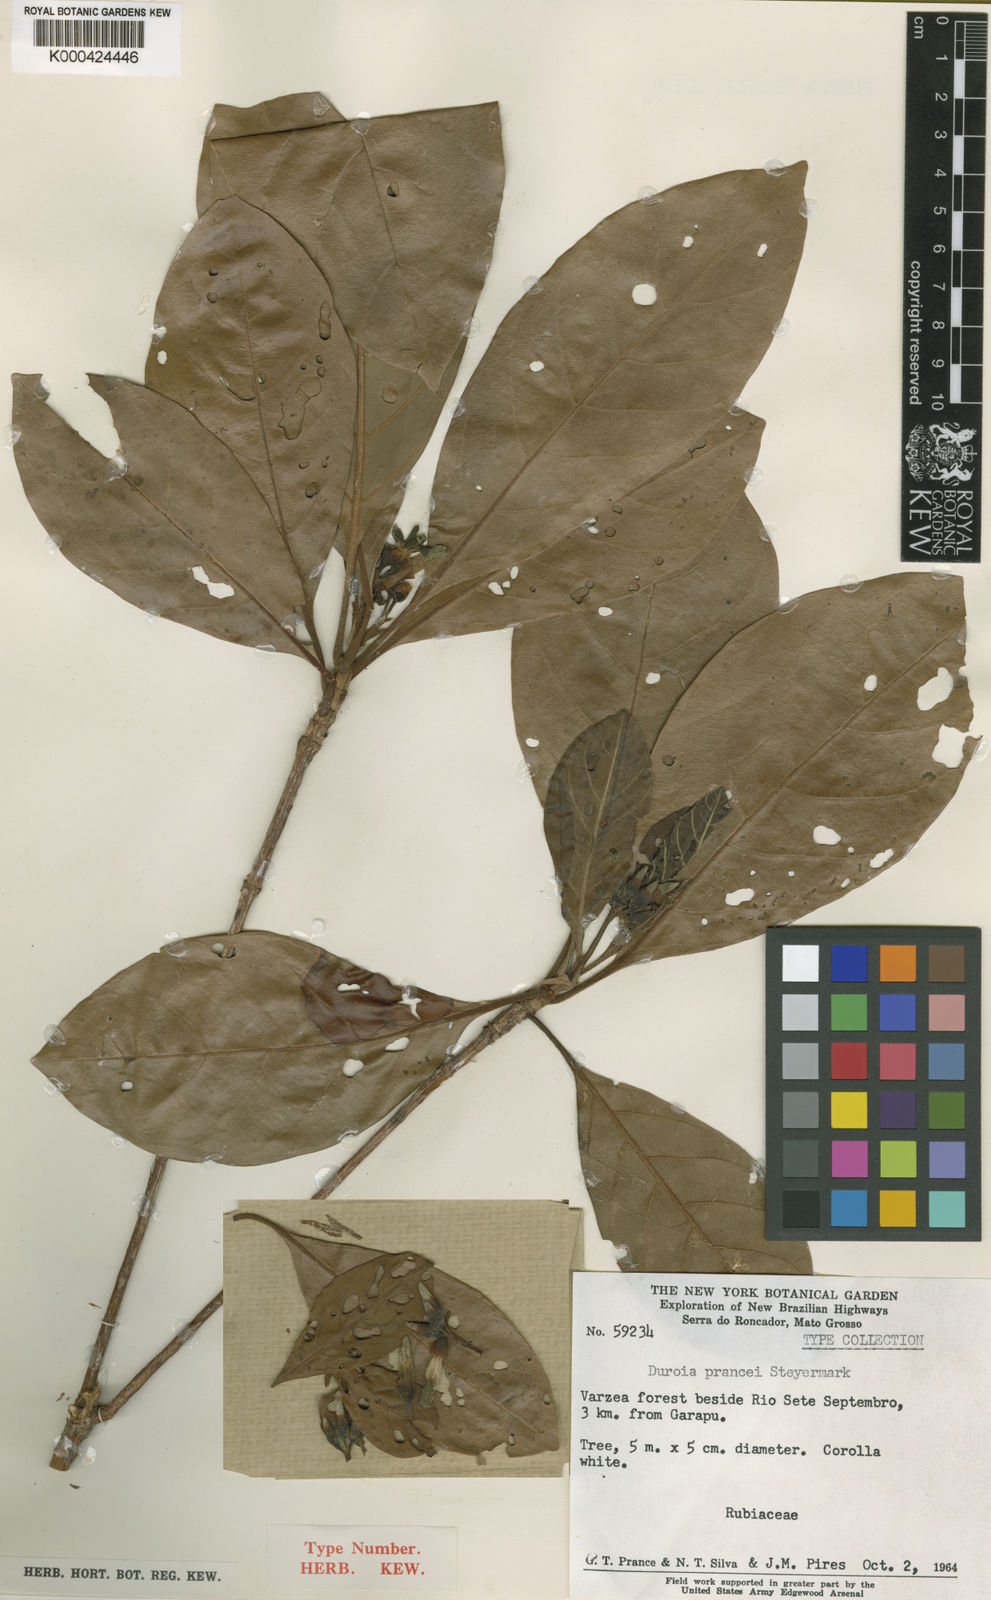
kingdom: Plantae
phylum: Tracheophyta
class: Magnoliopsida
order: Gentianales
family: Rubiaceae
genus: Duroia
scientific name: Duroia prancei
